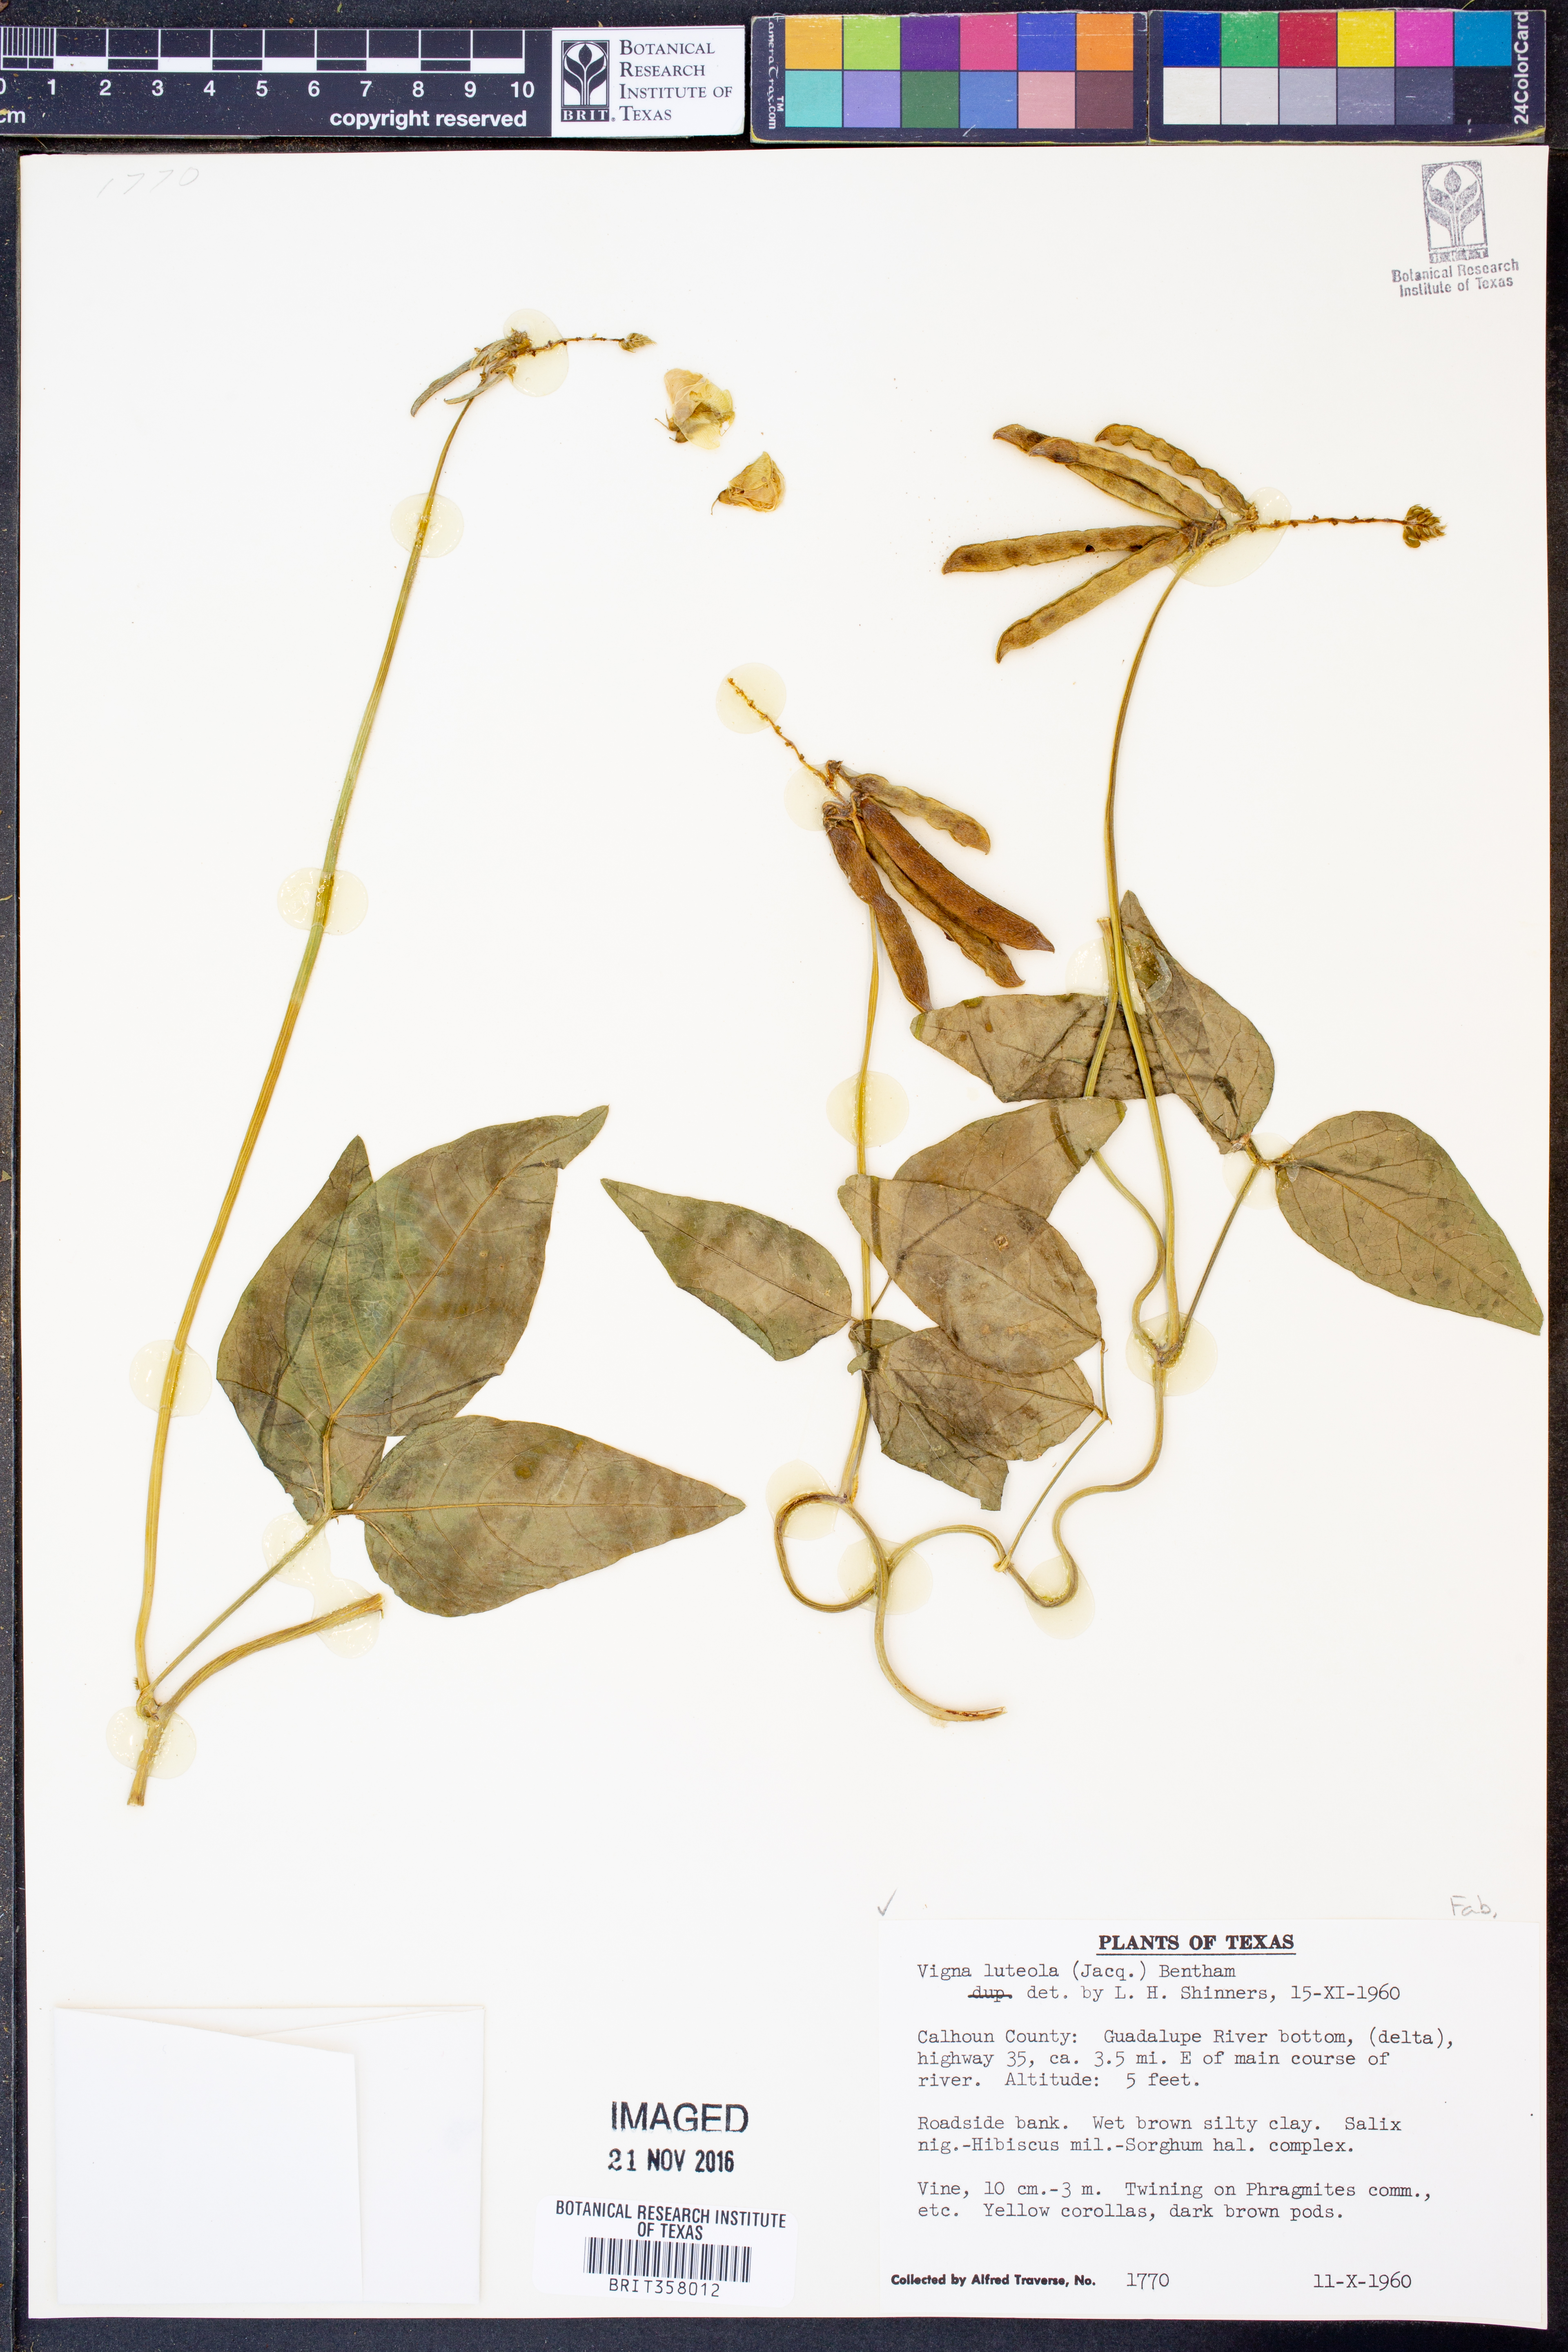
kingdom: Plantae
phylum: Tracheophyta
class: Magnoliopsida
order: Fabales
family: Fabaceae
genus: Vigna
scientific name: Vigna luteola
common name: Hairypod cowpea
